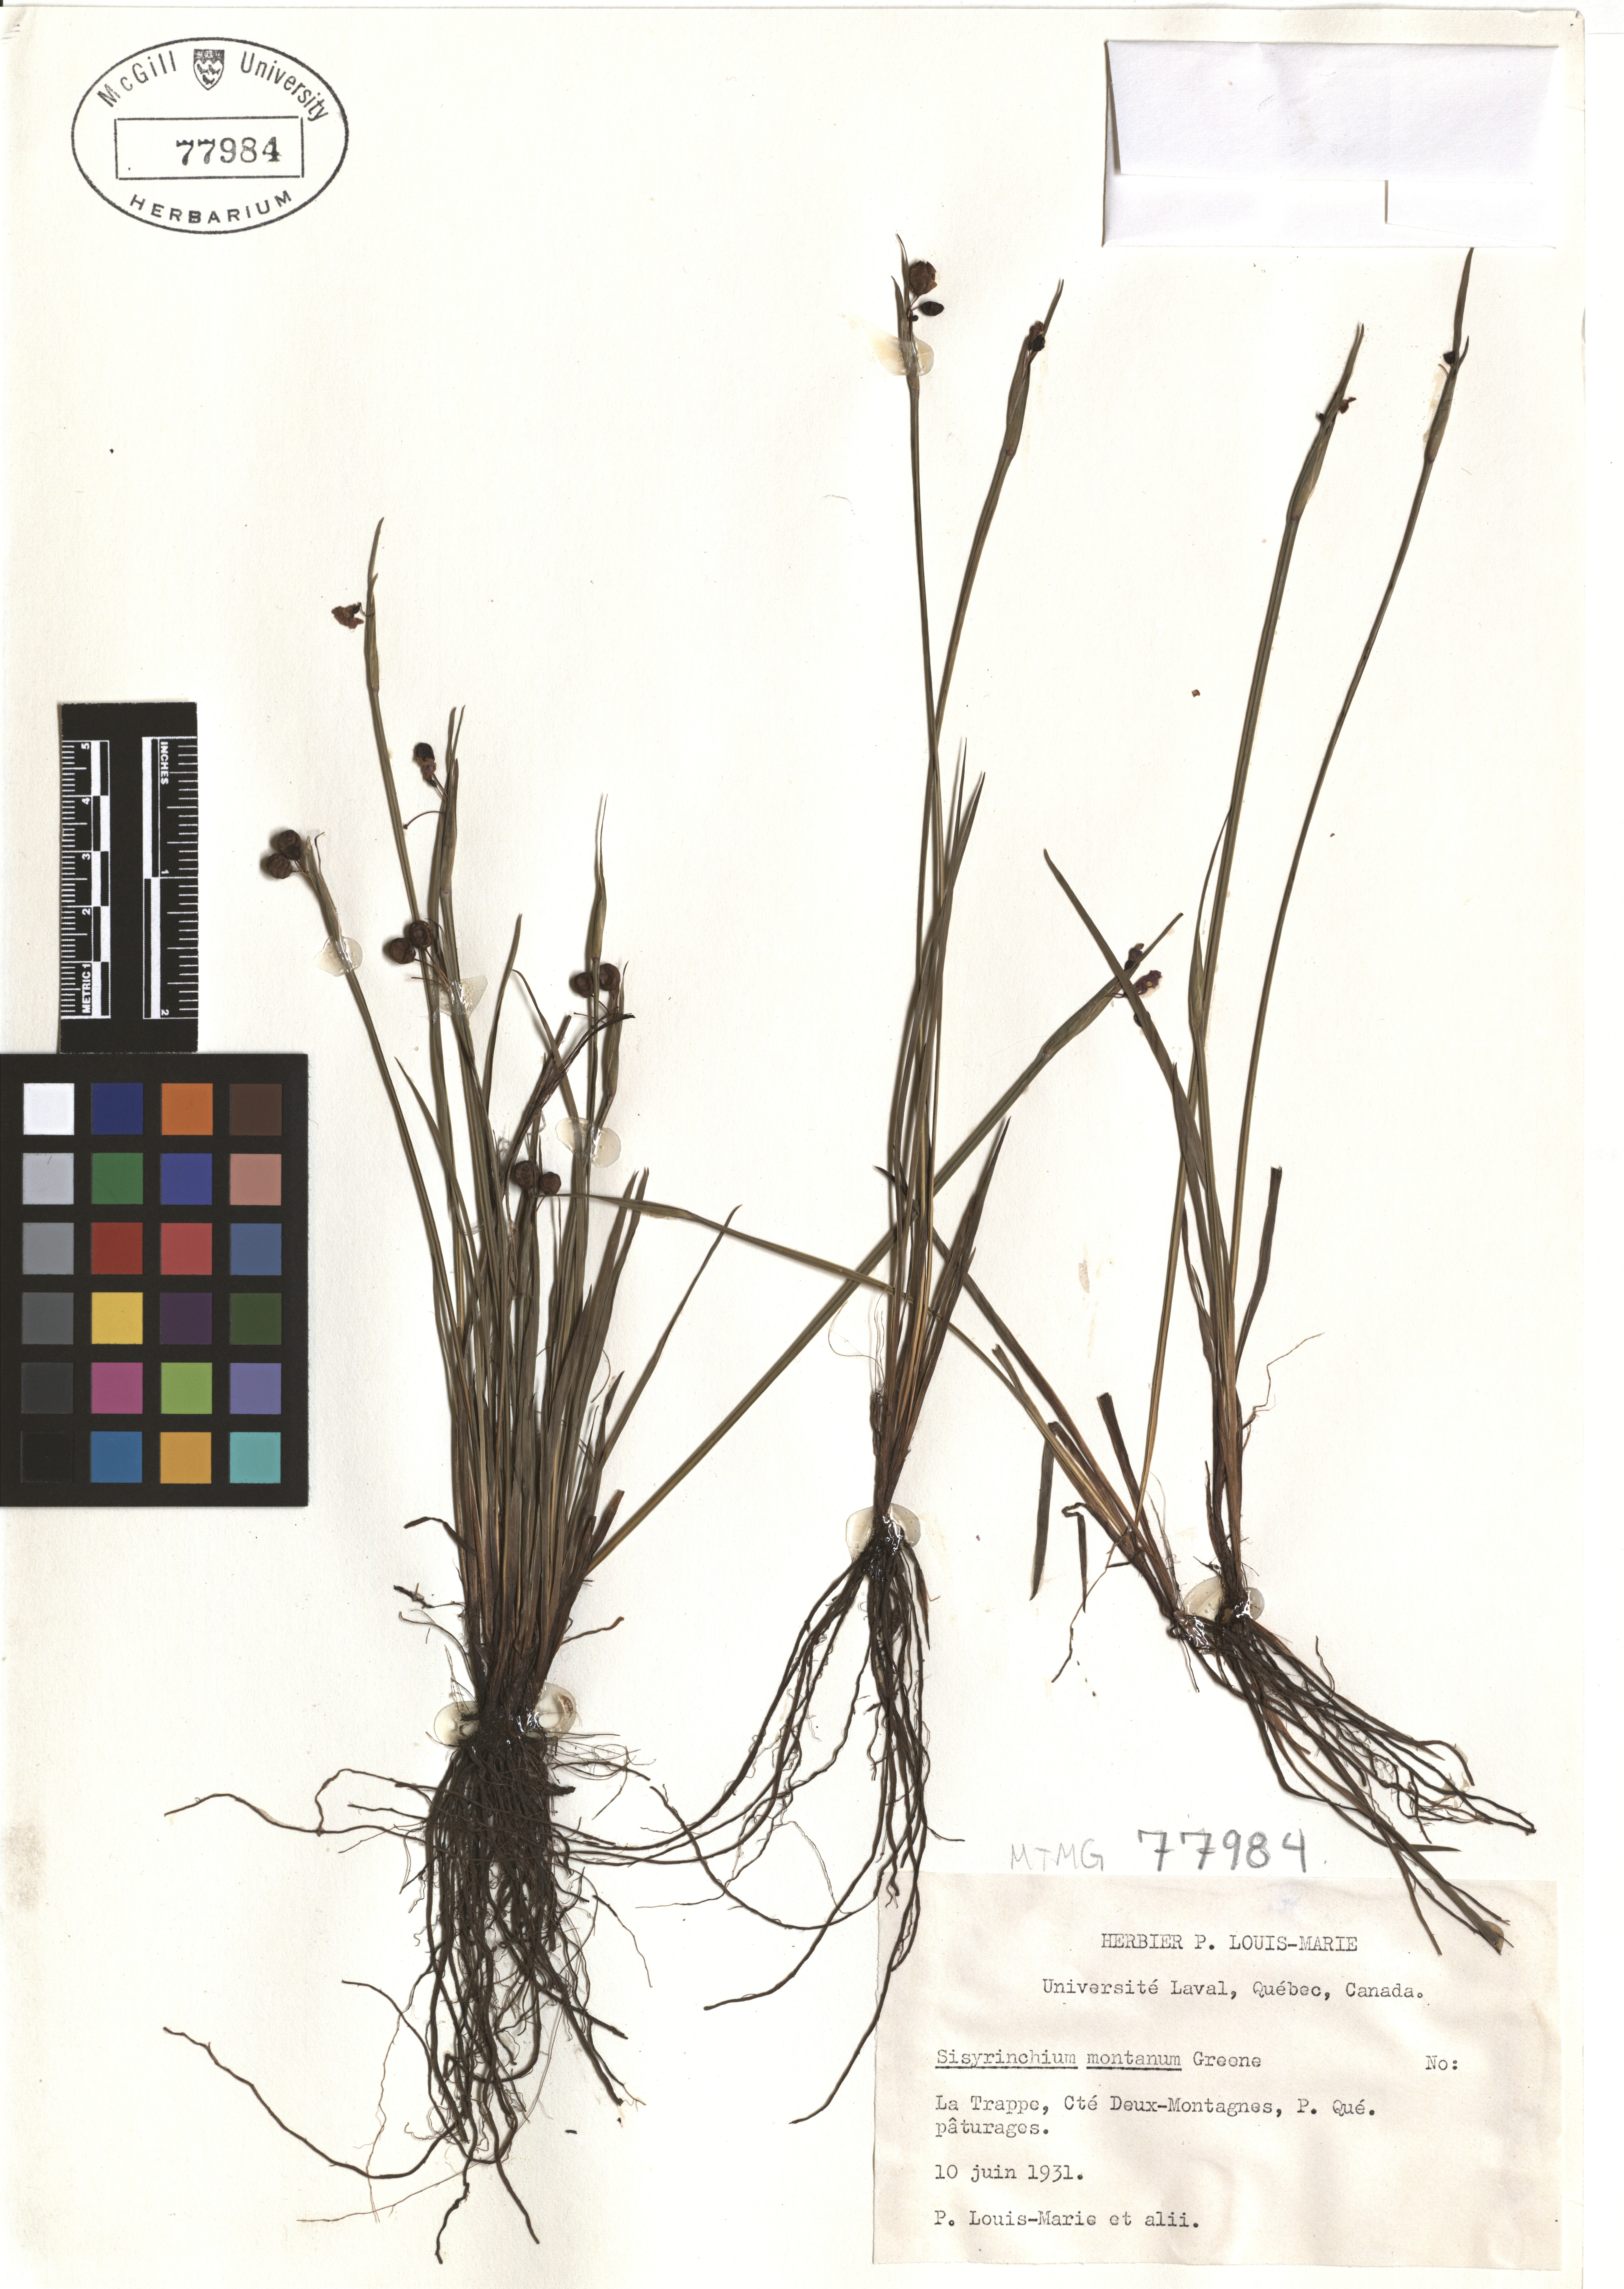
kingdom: Plantae
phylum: Tracheophyta
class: Liliopsida
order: Asparagales
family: Iridaceae
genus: Sisyrinchium
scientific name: Sisyrinchium montanum
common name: American blue-eyed-grass
